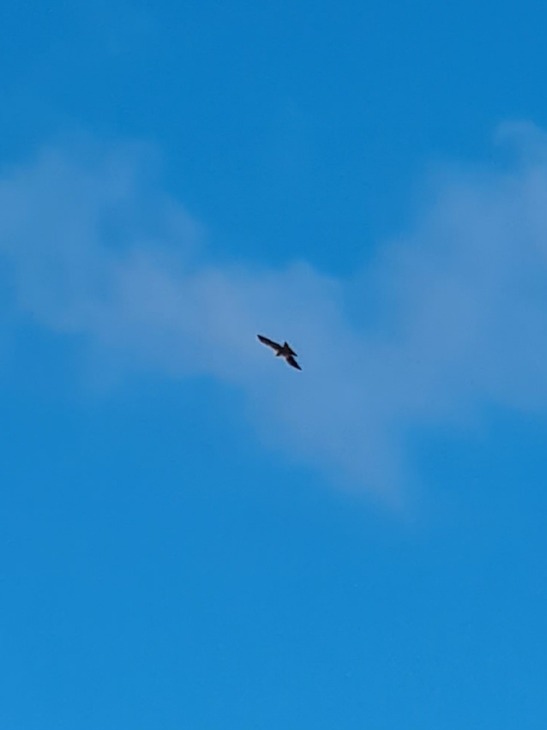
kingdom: Animalia
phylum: Chordata
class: Aves
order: Accipitriformes
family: Accipitridae
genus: Milvus
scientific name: Milvus milvus
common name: Rød glente
